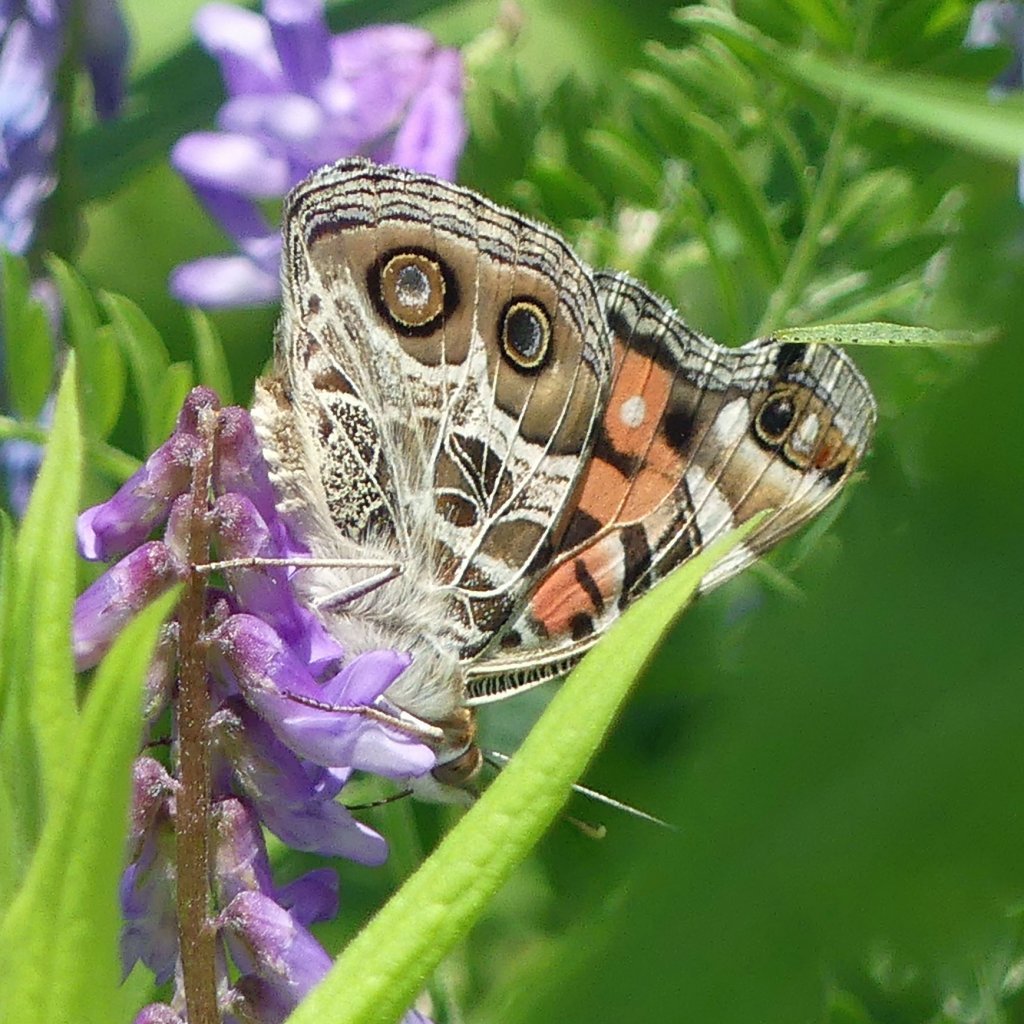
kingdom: Animalia
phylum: Arthropoda
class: Insecta
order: Lepidoptera
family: Nymphalidae
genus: Vanessa
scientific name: Vanessa virginiensis
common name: American Lady
